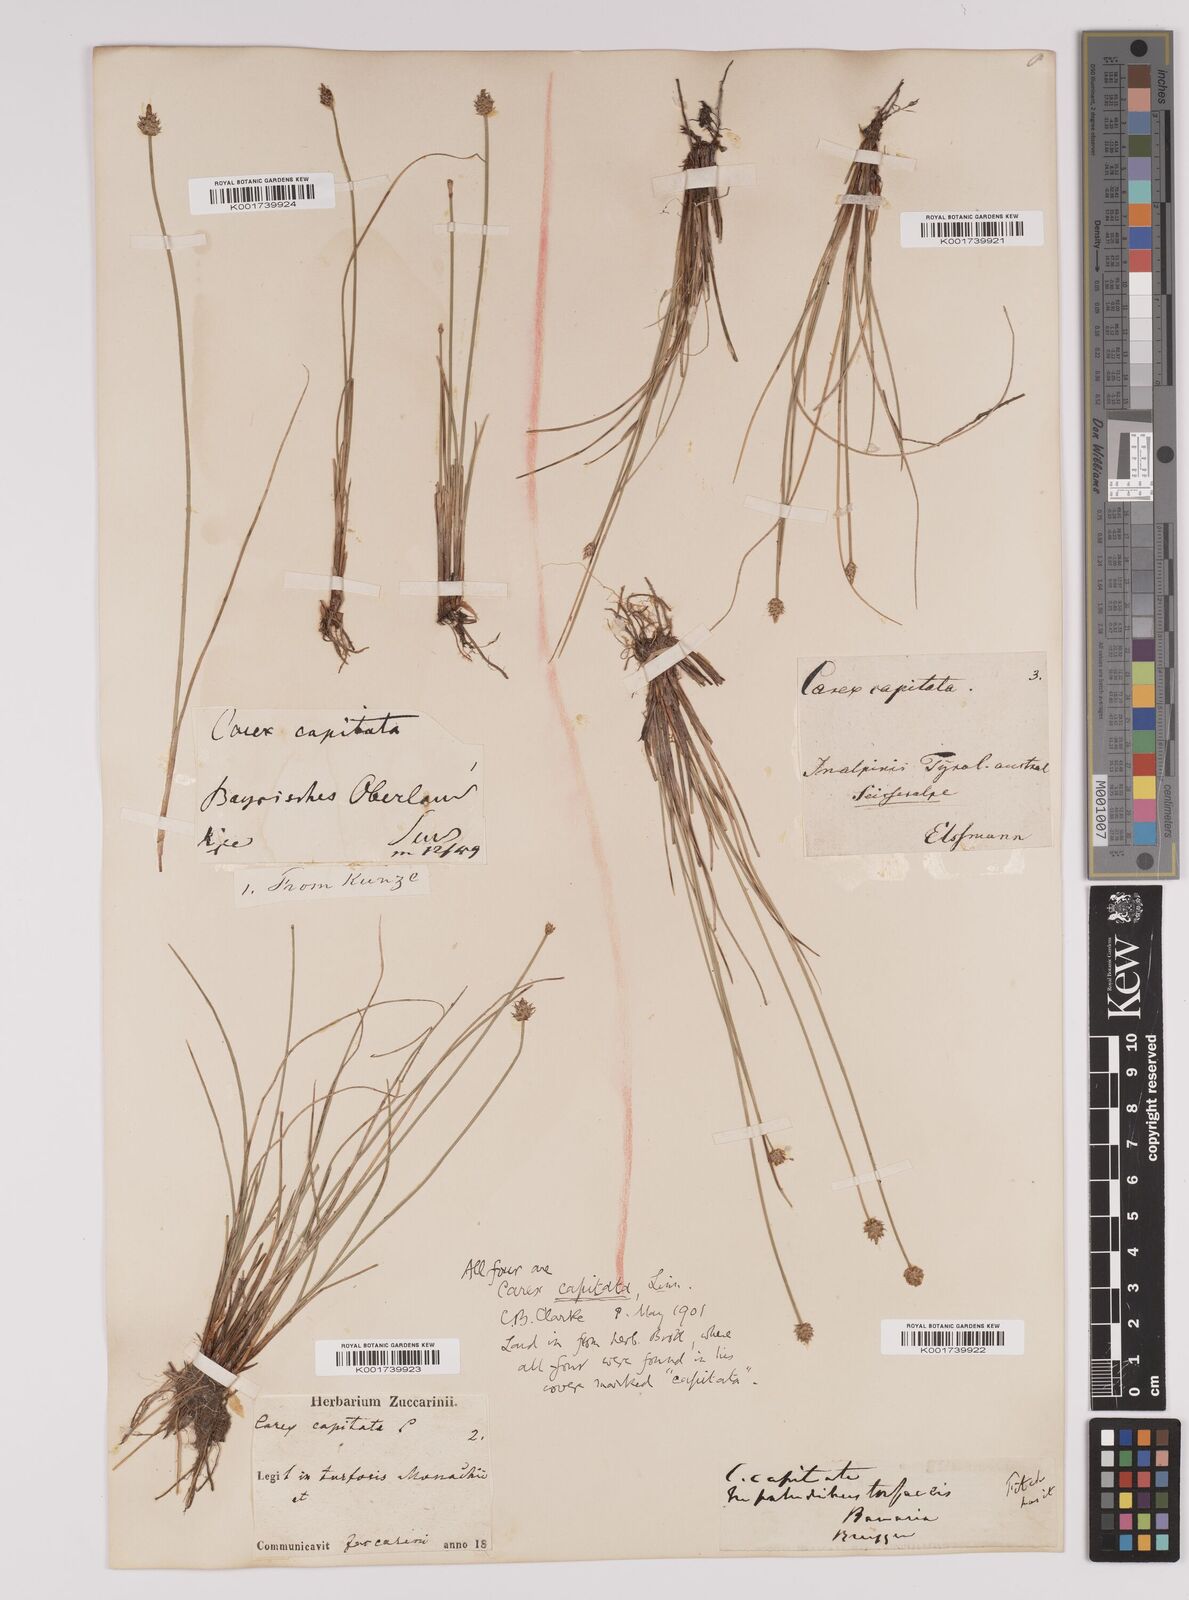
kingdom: Plantae
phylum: Tracheophyta
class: Liliopsida
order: Poales
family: Cyperaceae
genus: Carex
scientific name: Carex capitata
